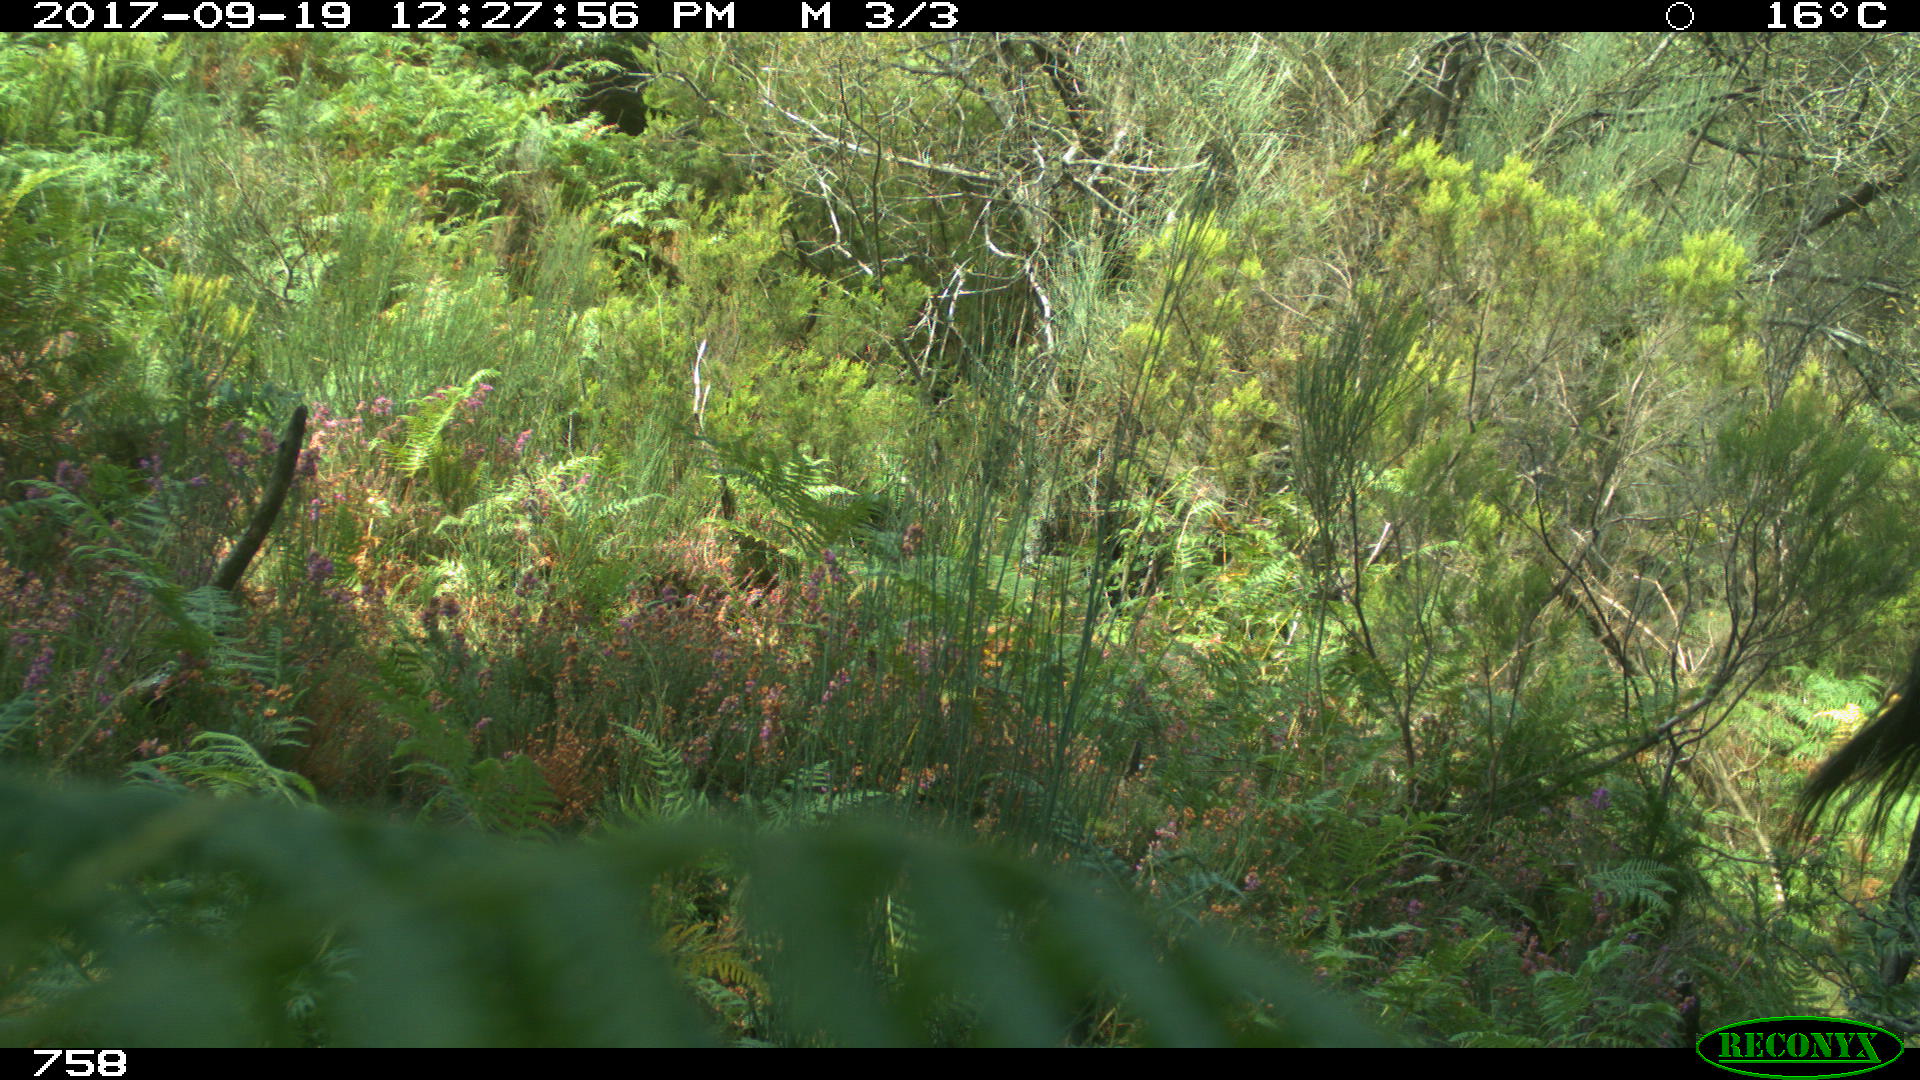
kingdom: Animalia
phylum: Chordata
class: Mammalia
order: Perissodactyla
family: Equidae
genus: Equus
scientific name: Equus caballus
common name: Horse
